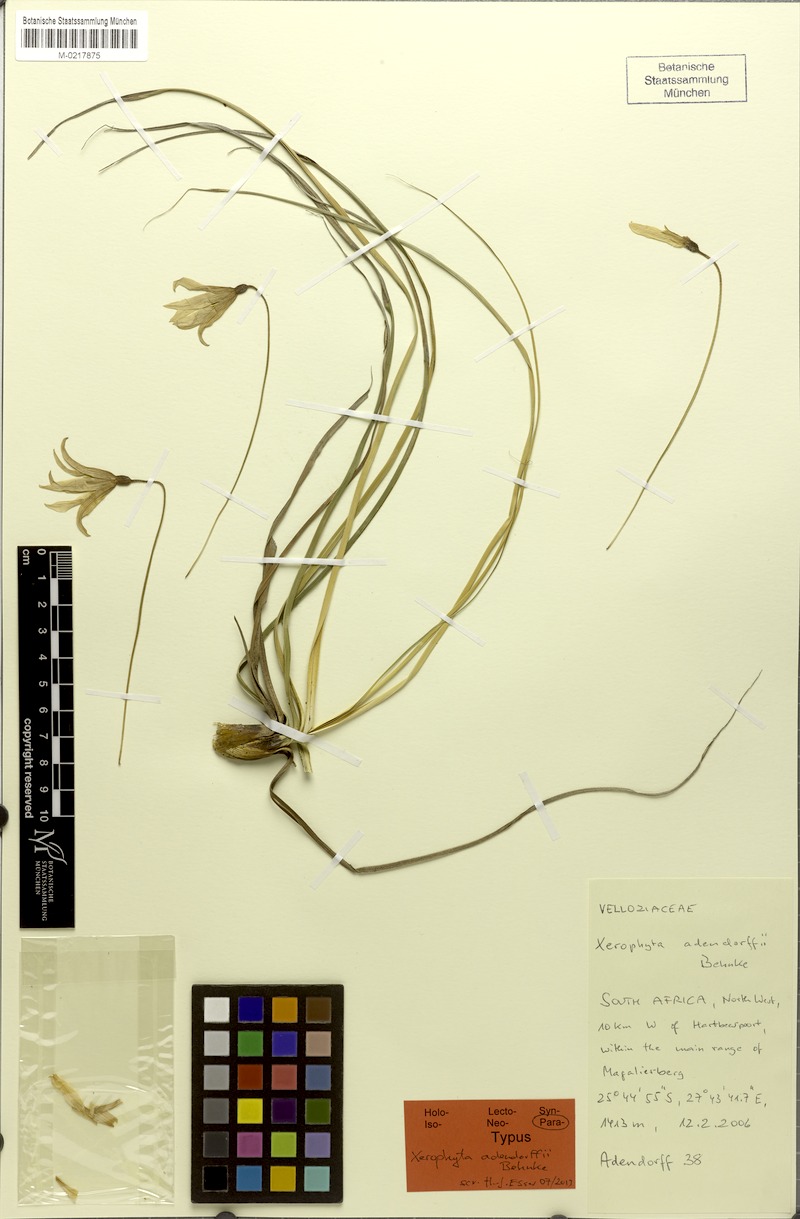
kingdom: Plantae
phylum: Tracheophyta
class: Liliopsida
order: Pandanales
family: Velloziaceae
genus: Xerophyta
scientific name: Xerophyta adendorffii
